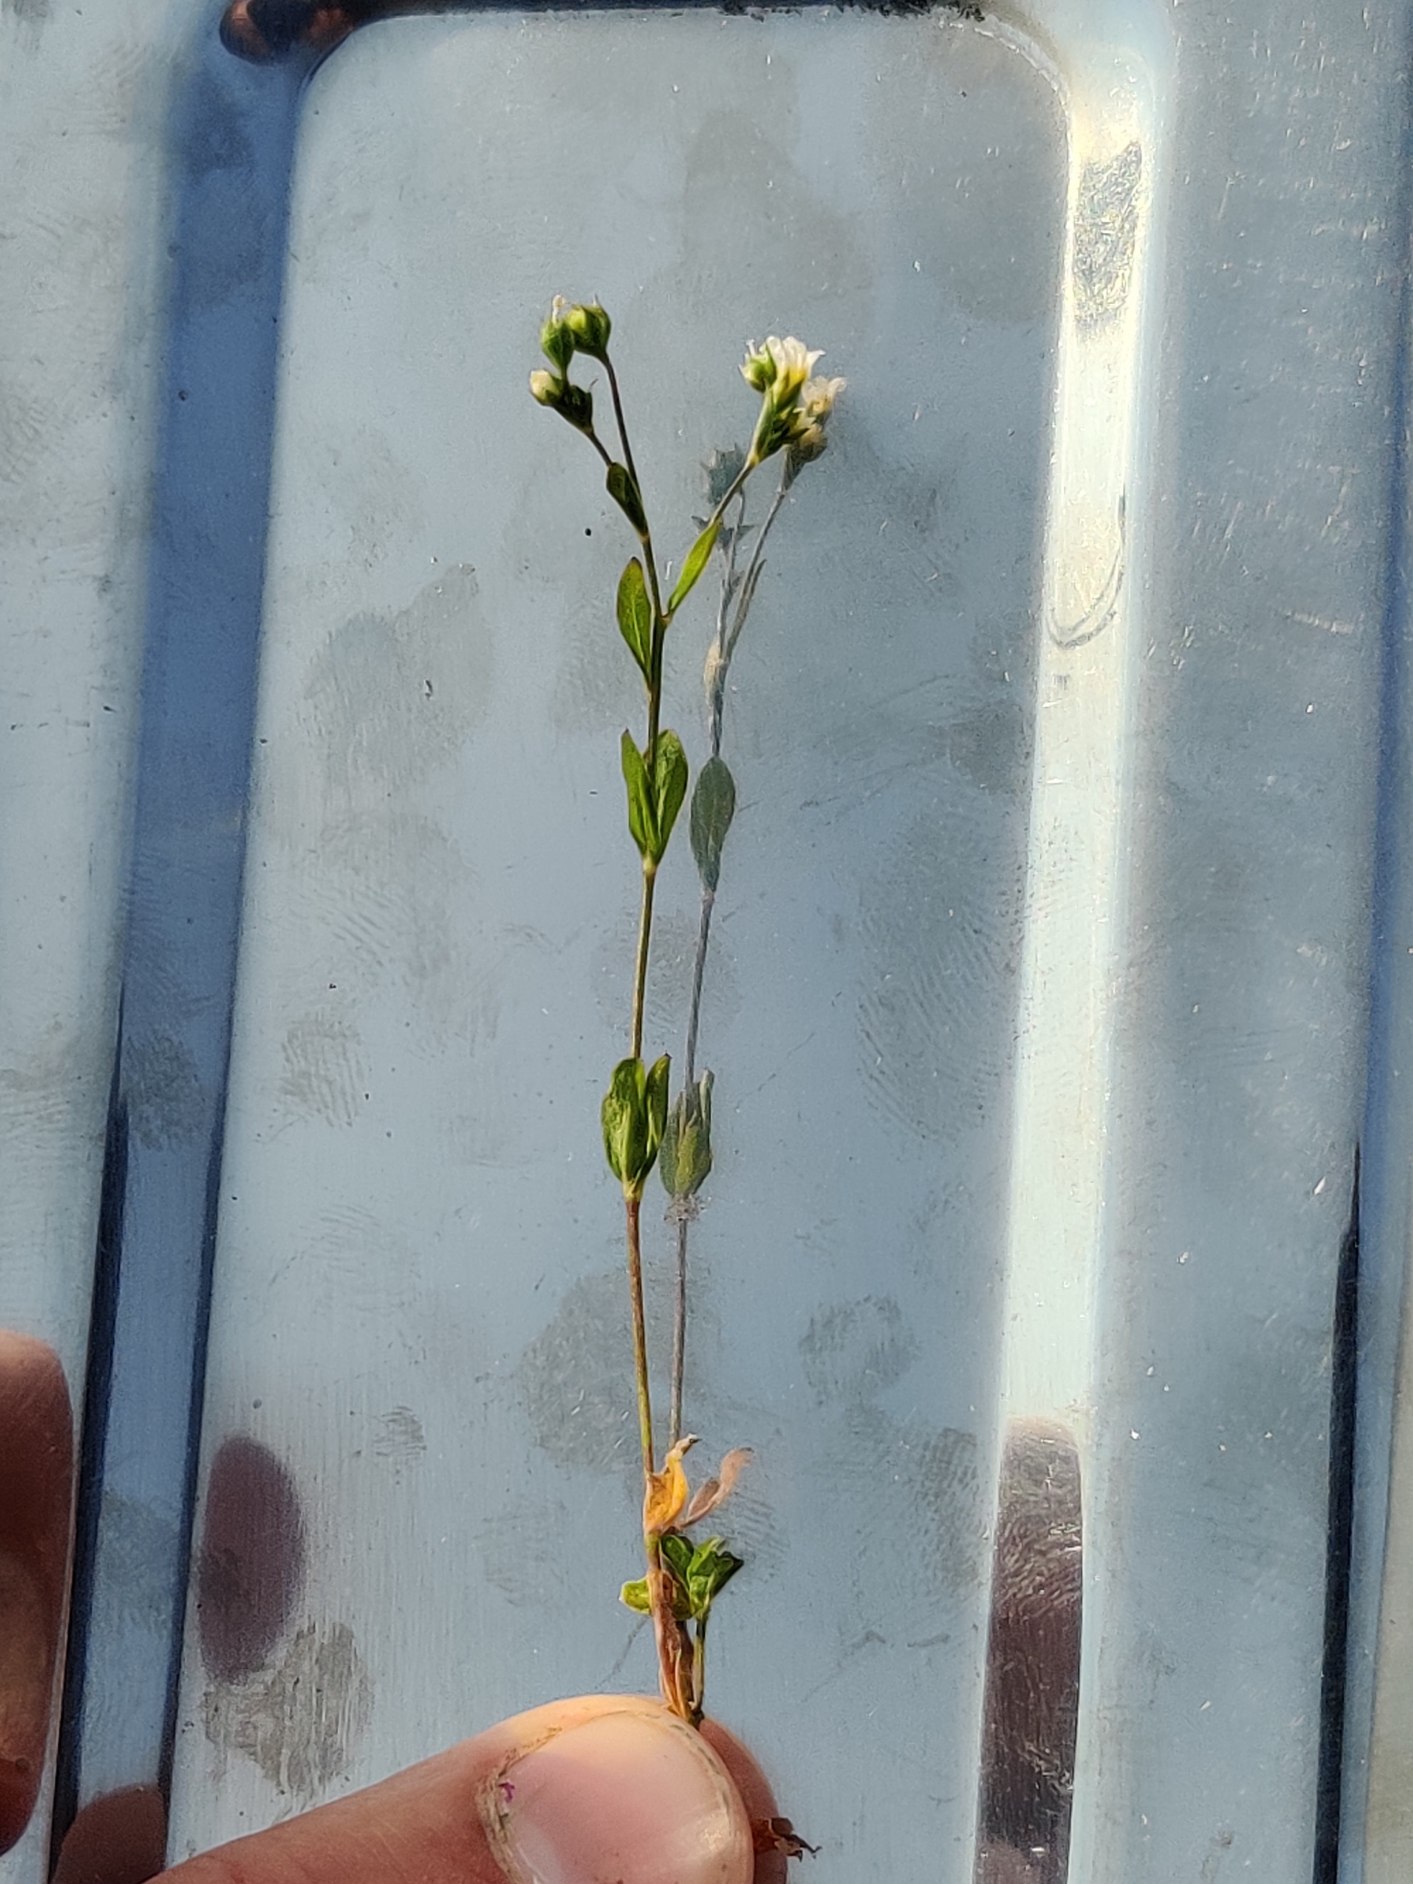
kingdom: Plantae
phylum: Tracheophyta
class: Magnoliopsida
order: Malpighiales
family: Linaceae
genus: Linum
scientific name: Linum catharticum
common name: Vild hør
